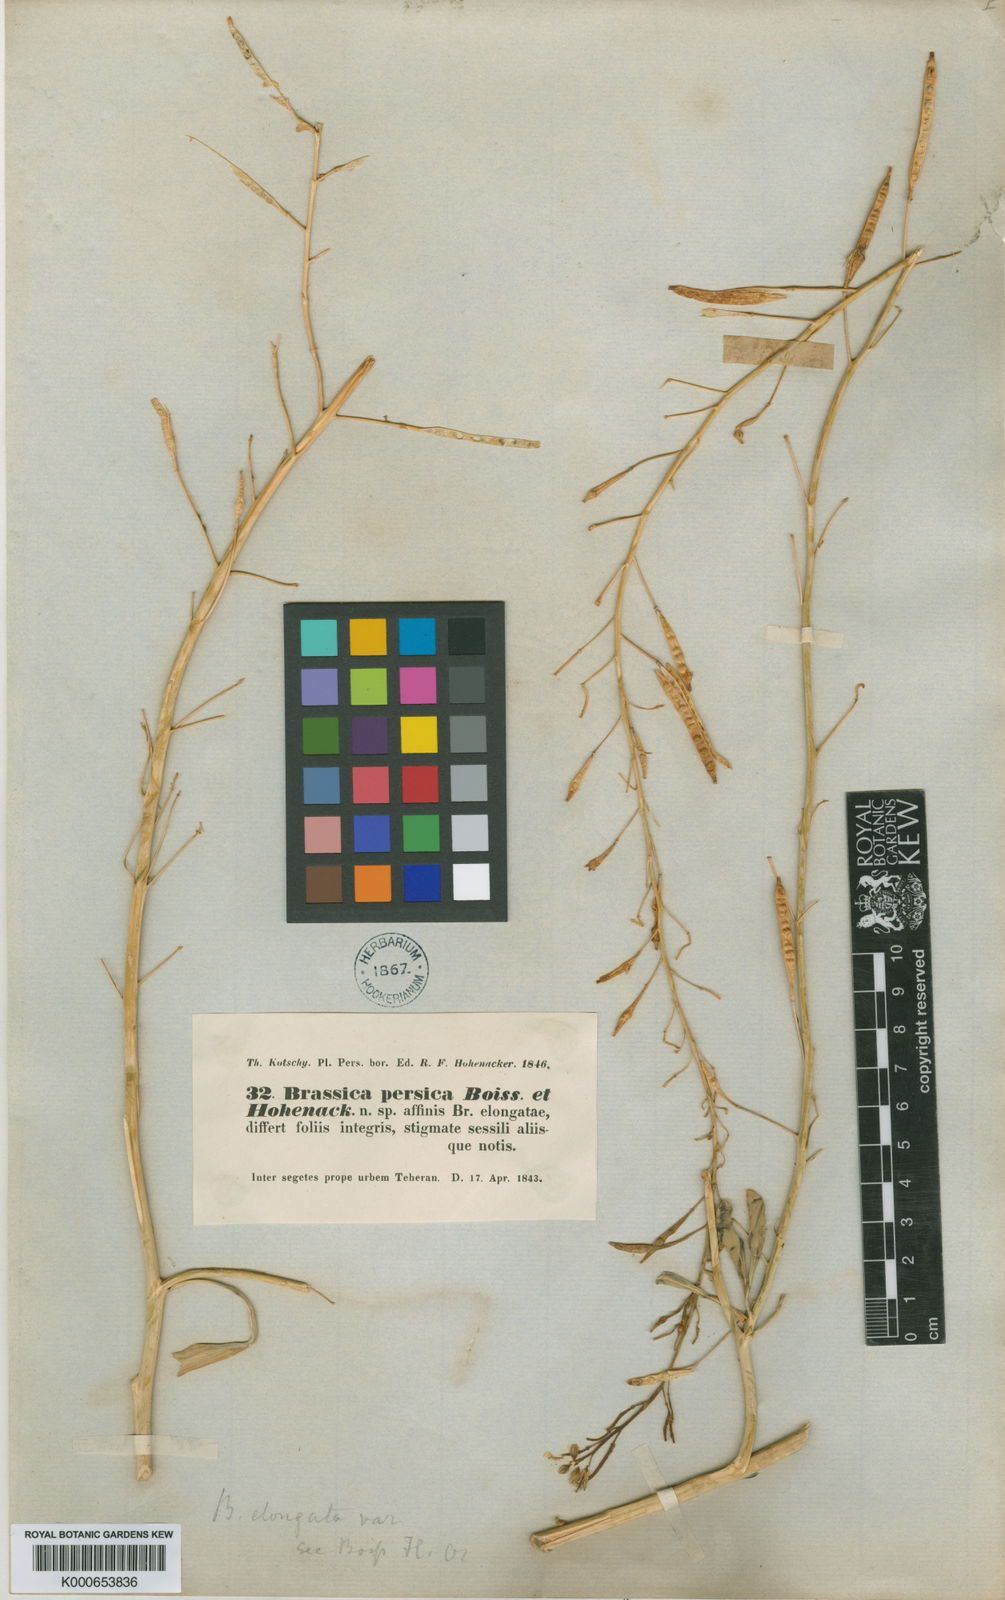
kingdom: Plantae
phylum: Tracheophyta
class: Magnoliopsida
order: Brassicales
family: Brassicaceae
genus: Brassica
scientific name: Brassica elongata
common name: Long-stalked rape
